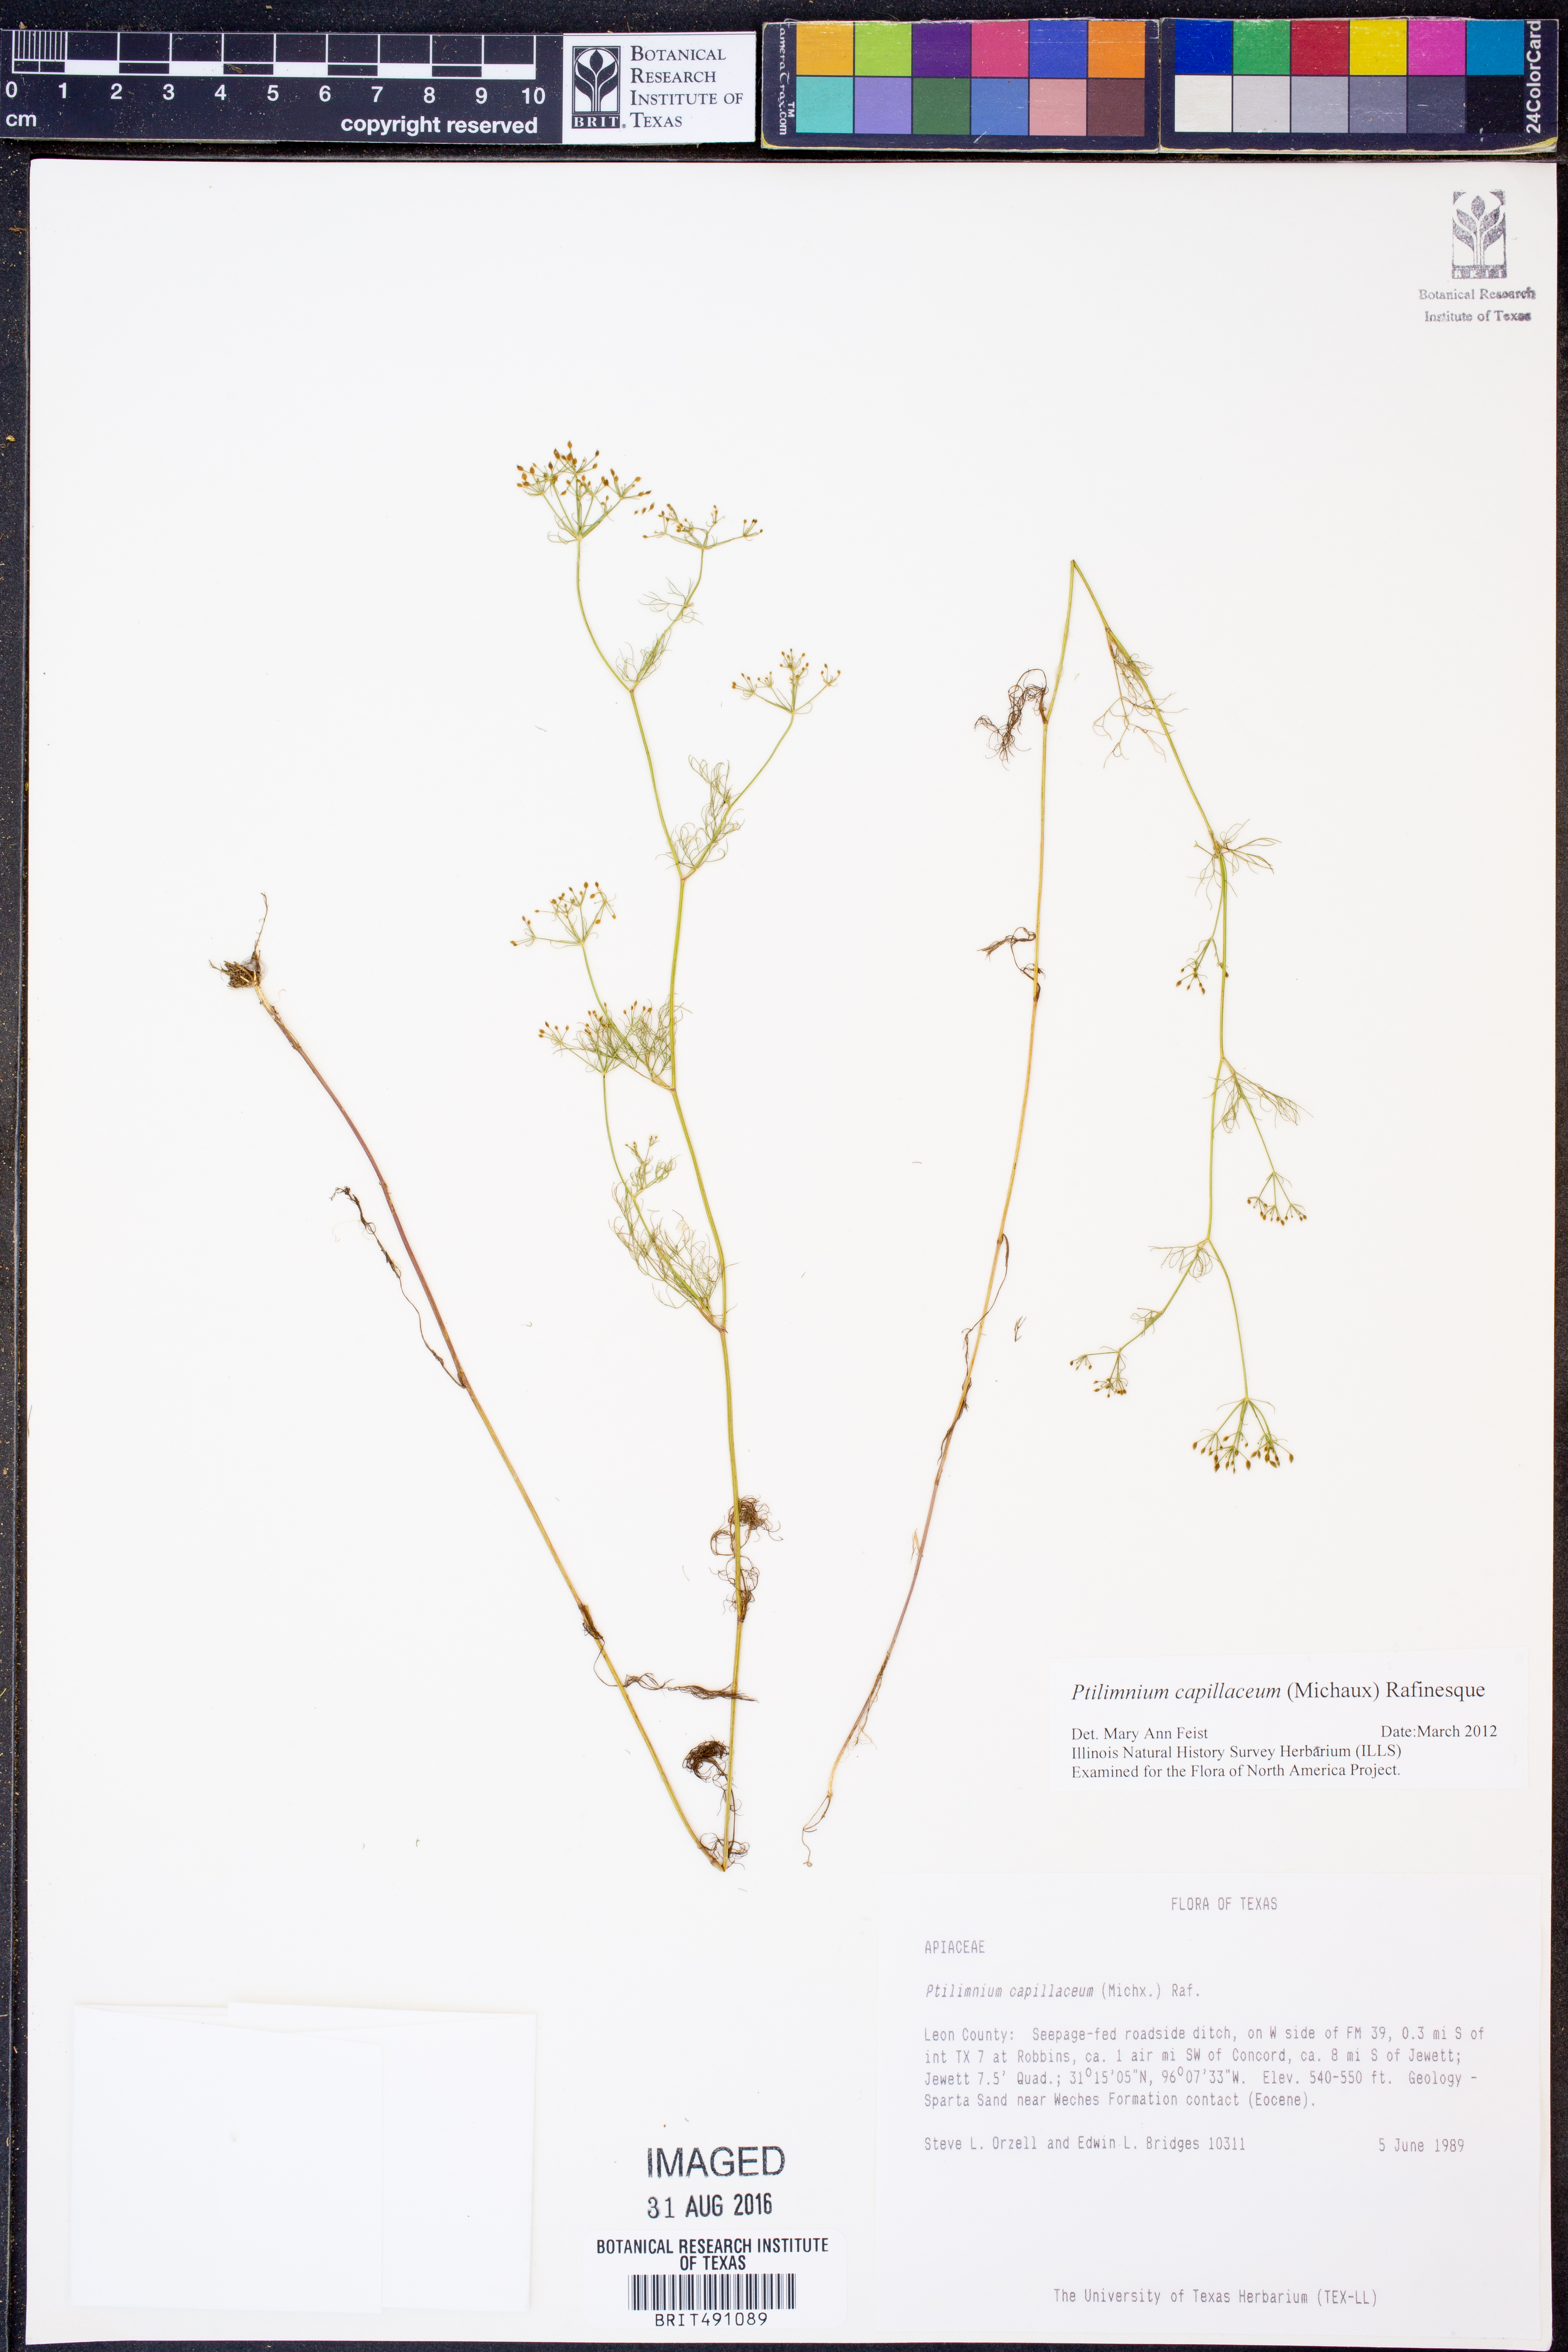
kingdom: Plantae
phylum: Tracheophyta
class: Magnoliopsida
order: Apiales
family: Apiaceae
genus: Ptilimnium
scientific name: Ptilimnium capillaceum
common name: Herbwilliam
